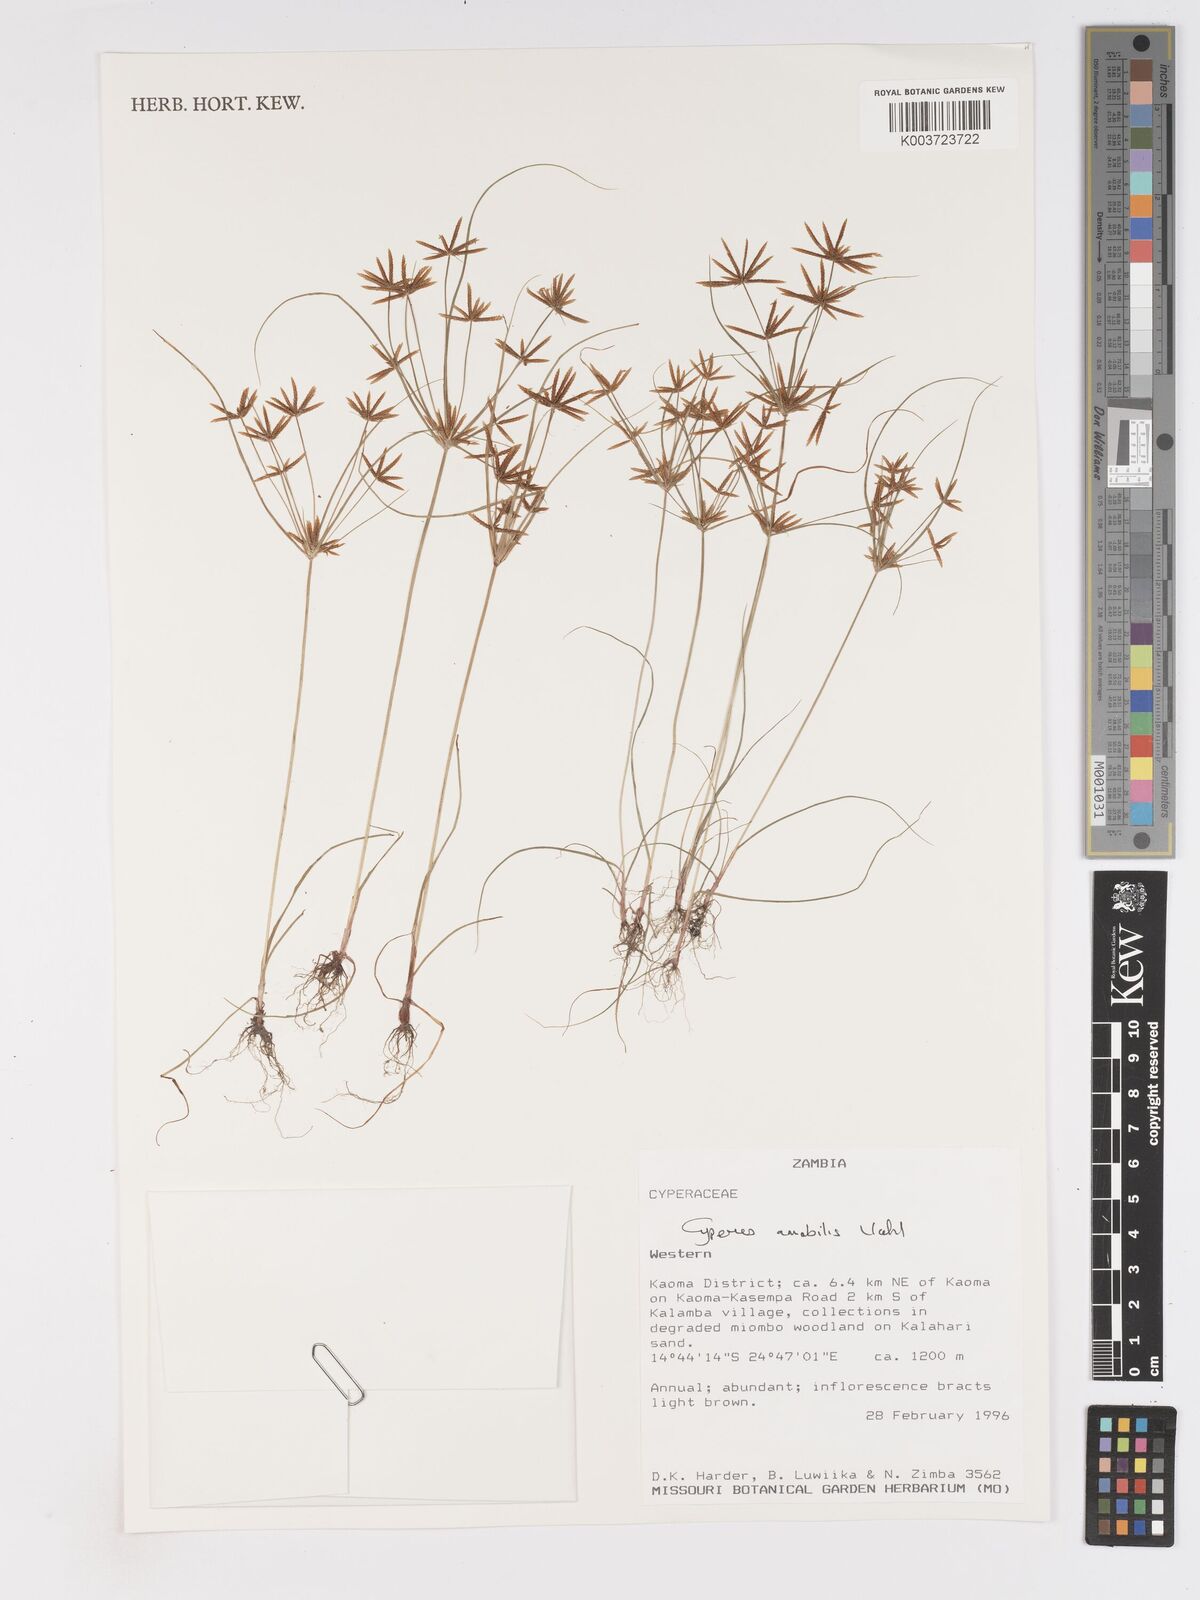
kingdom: Plantae
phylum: Tracheophyta
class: Liliopsida
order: Poales
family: Cyperaceae
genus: Cyperus
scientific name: Cyperus amabilis
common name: Foothill flat sedge
